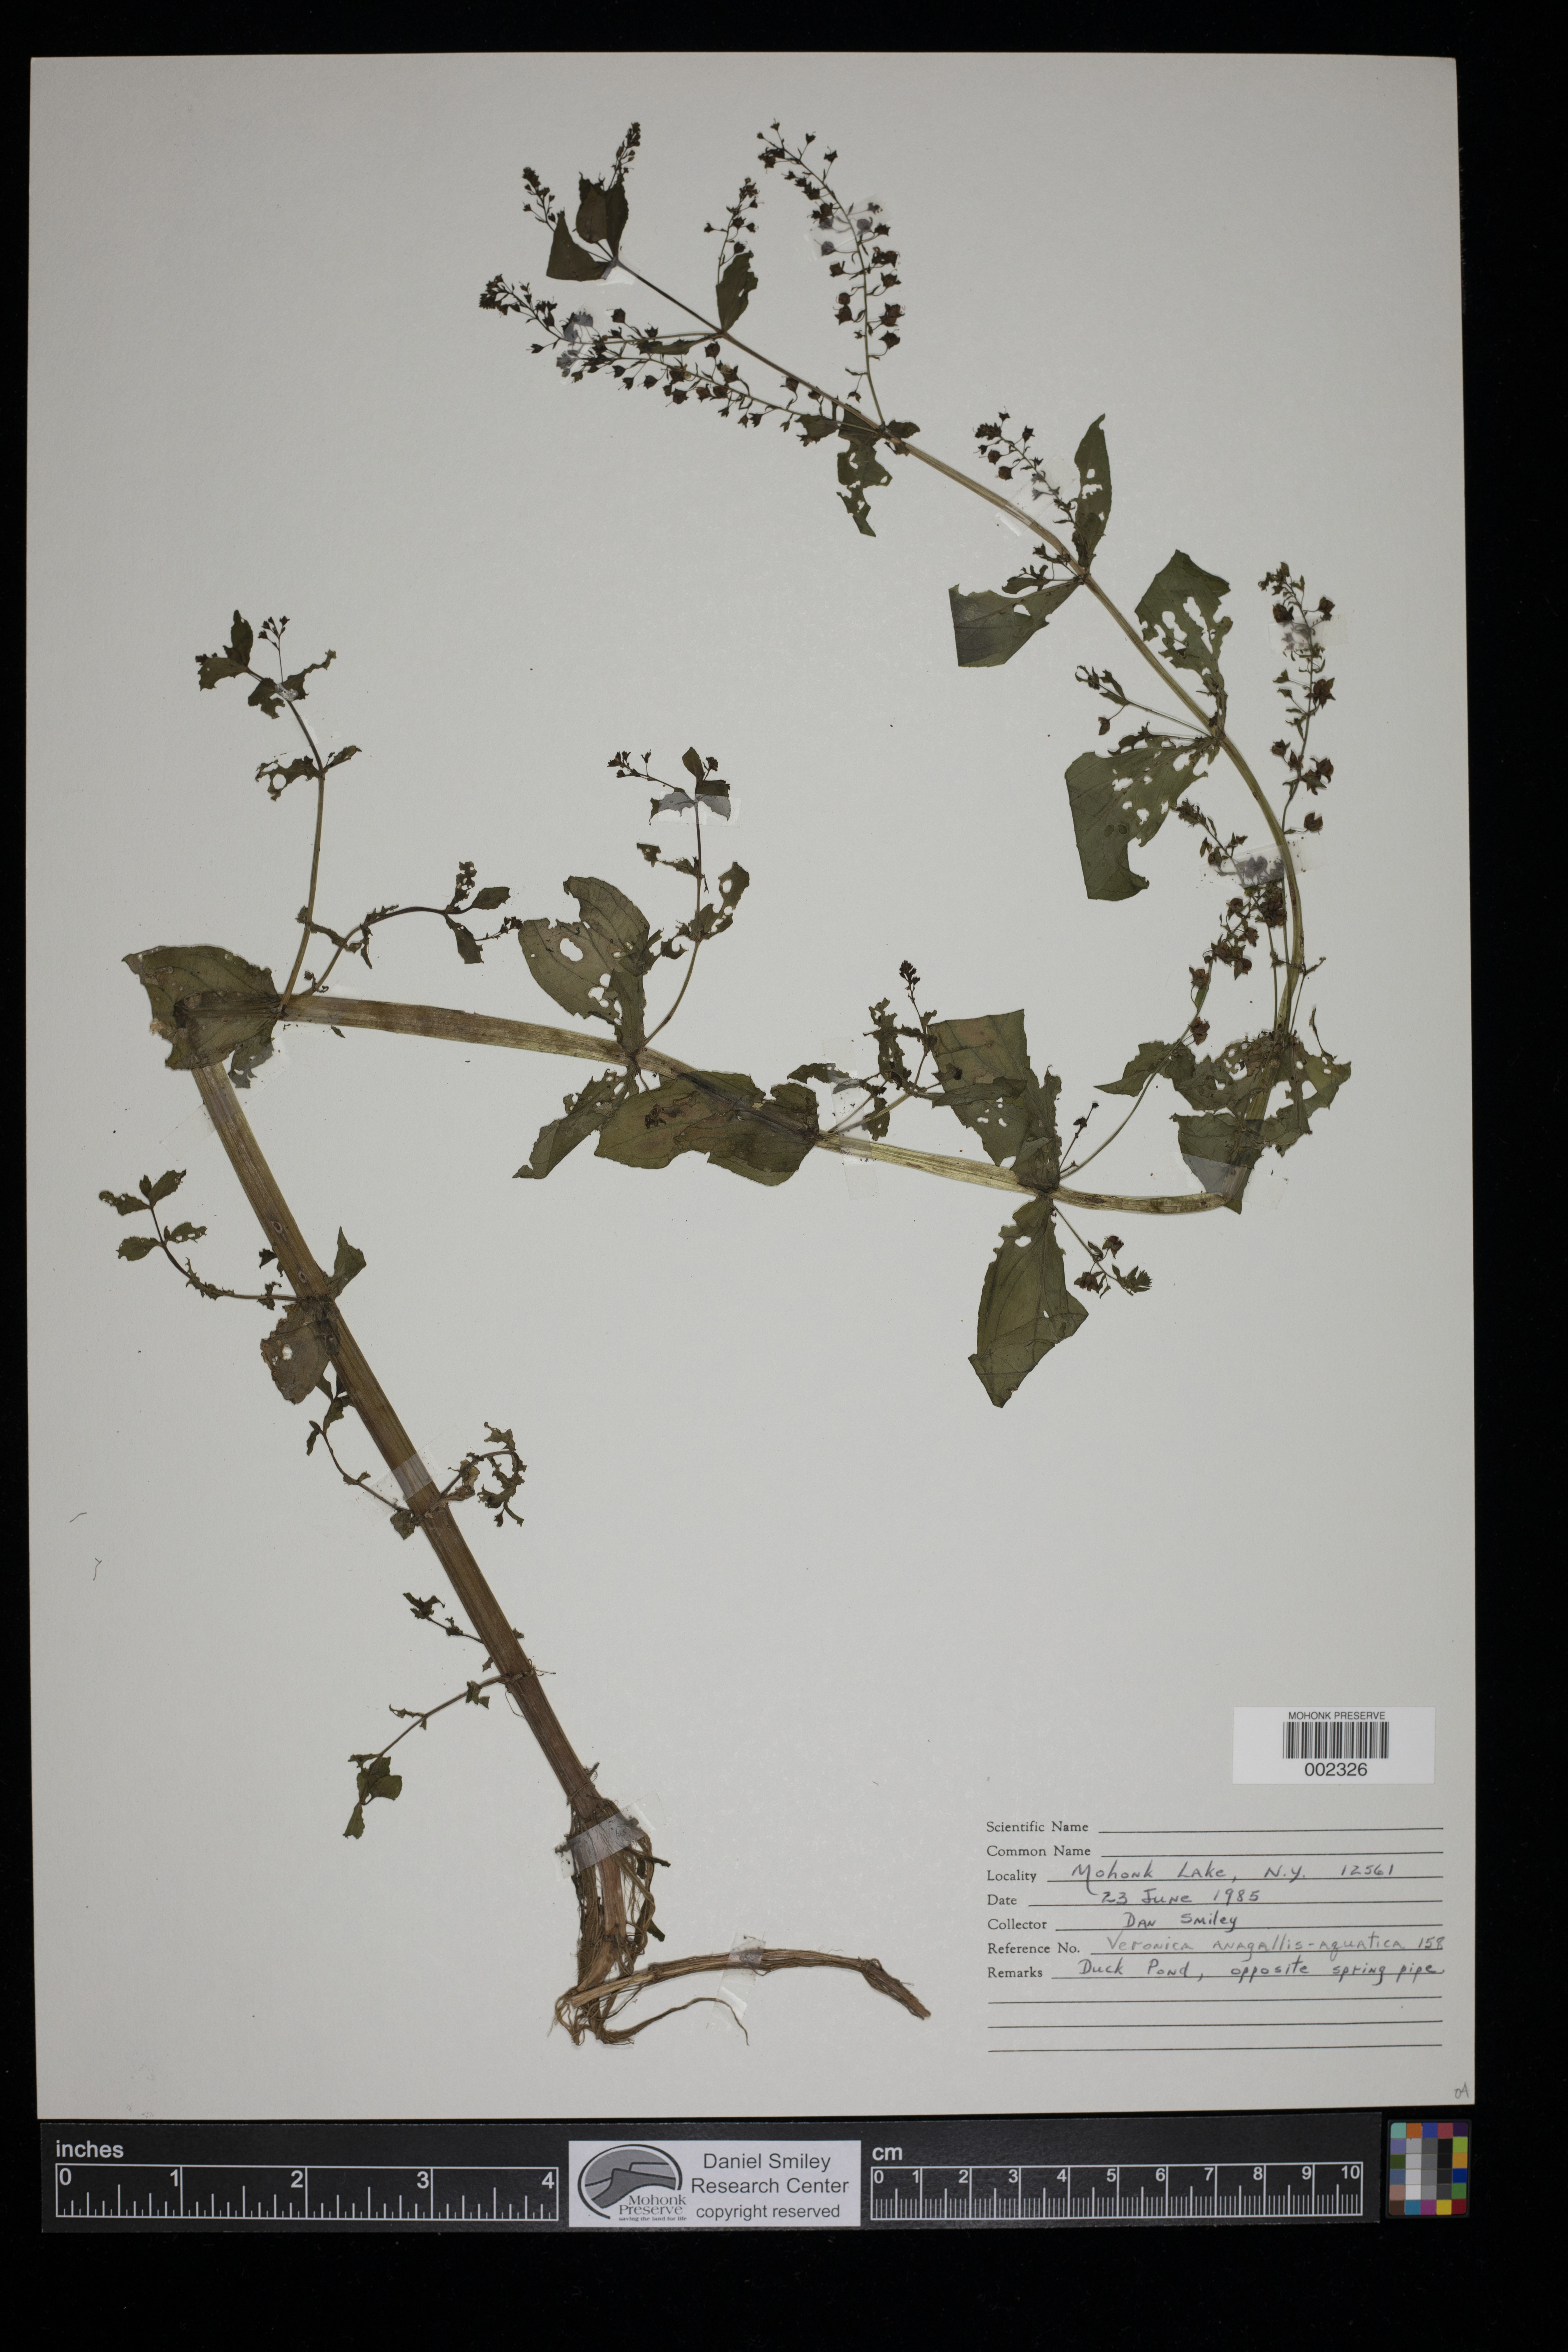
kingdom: Plantae
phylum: Tracheophyta
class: Magnoliopsida
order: Lamiales
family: Plantaginaceae
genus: Veronica
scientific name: Veronica anagallis-aquatica
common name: Water speedwell
